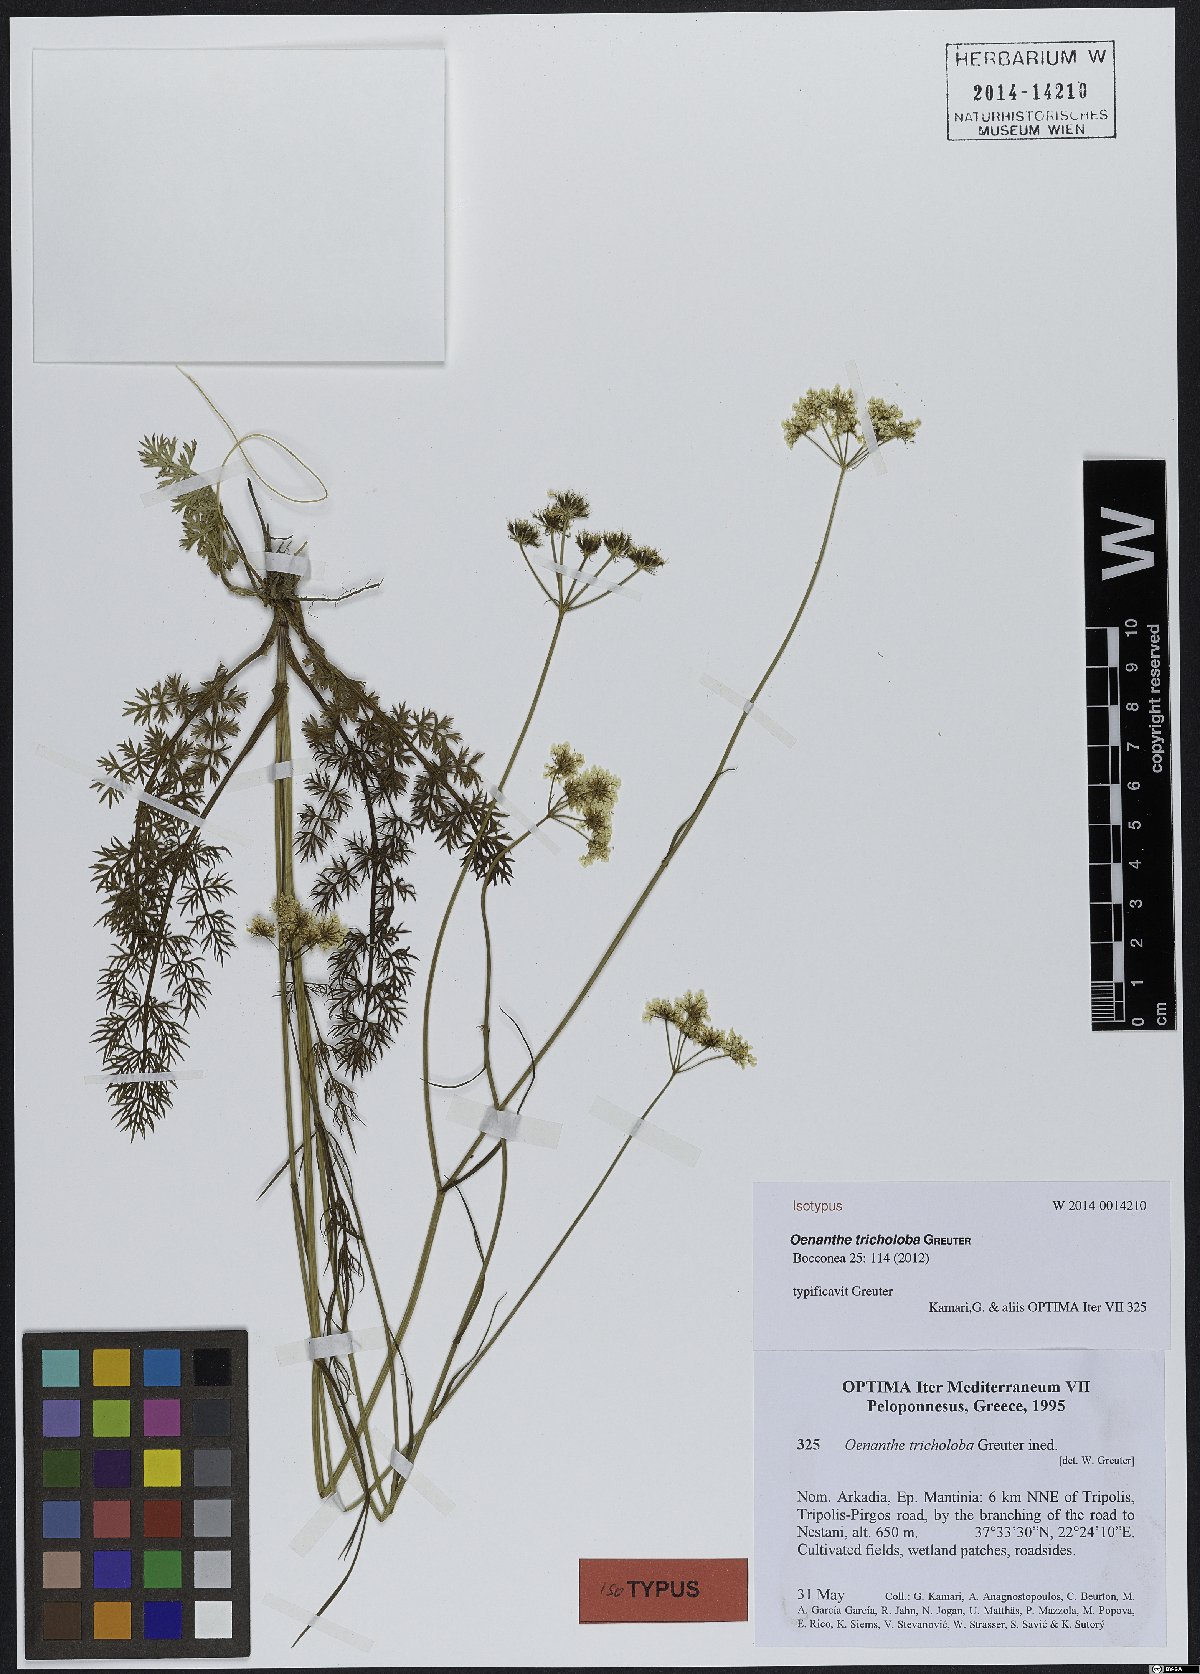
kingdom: Plantae
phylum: Tracheophyta
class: Magnoliopsida
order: Apiales
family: Apiaceae
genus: Oenanthe
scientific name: Oenanthe tricholoba
